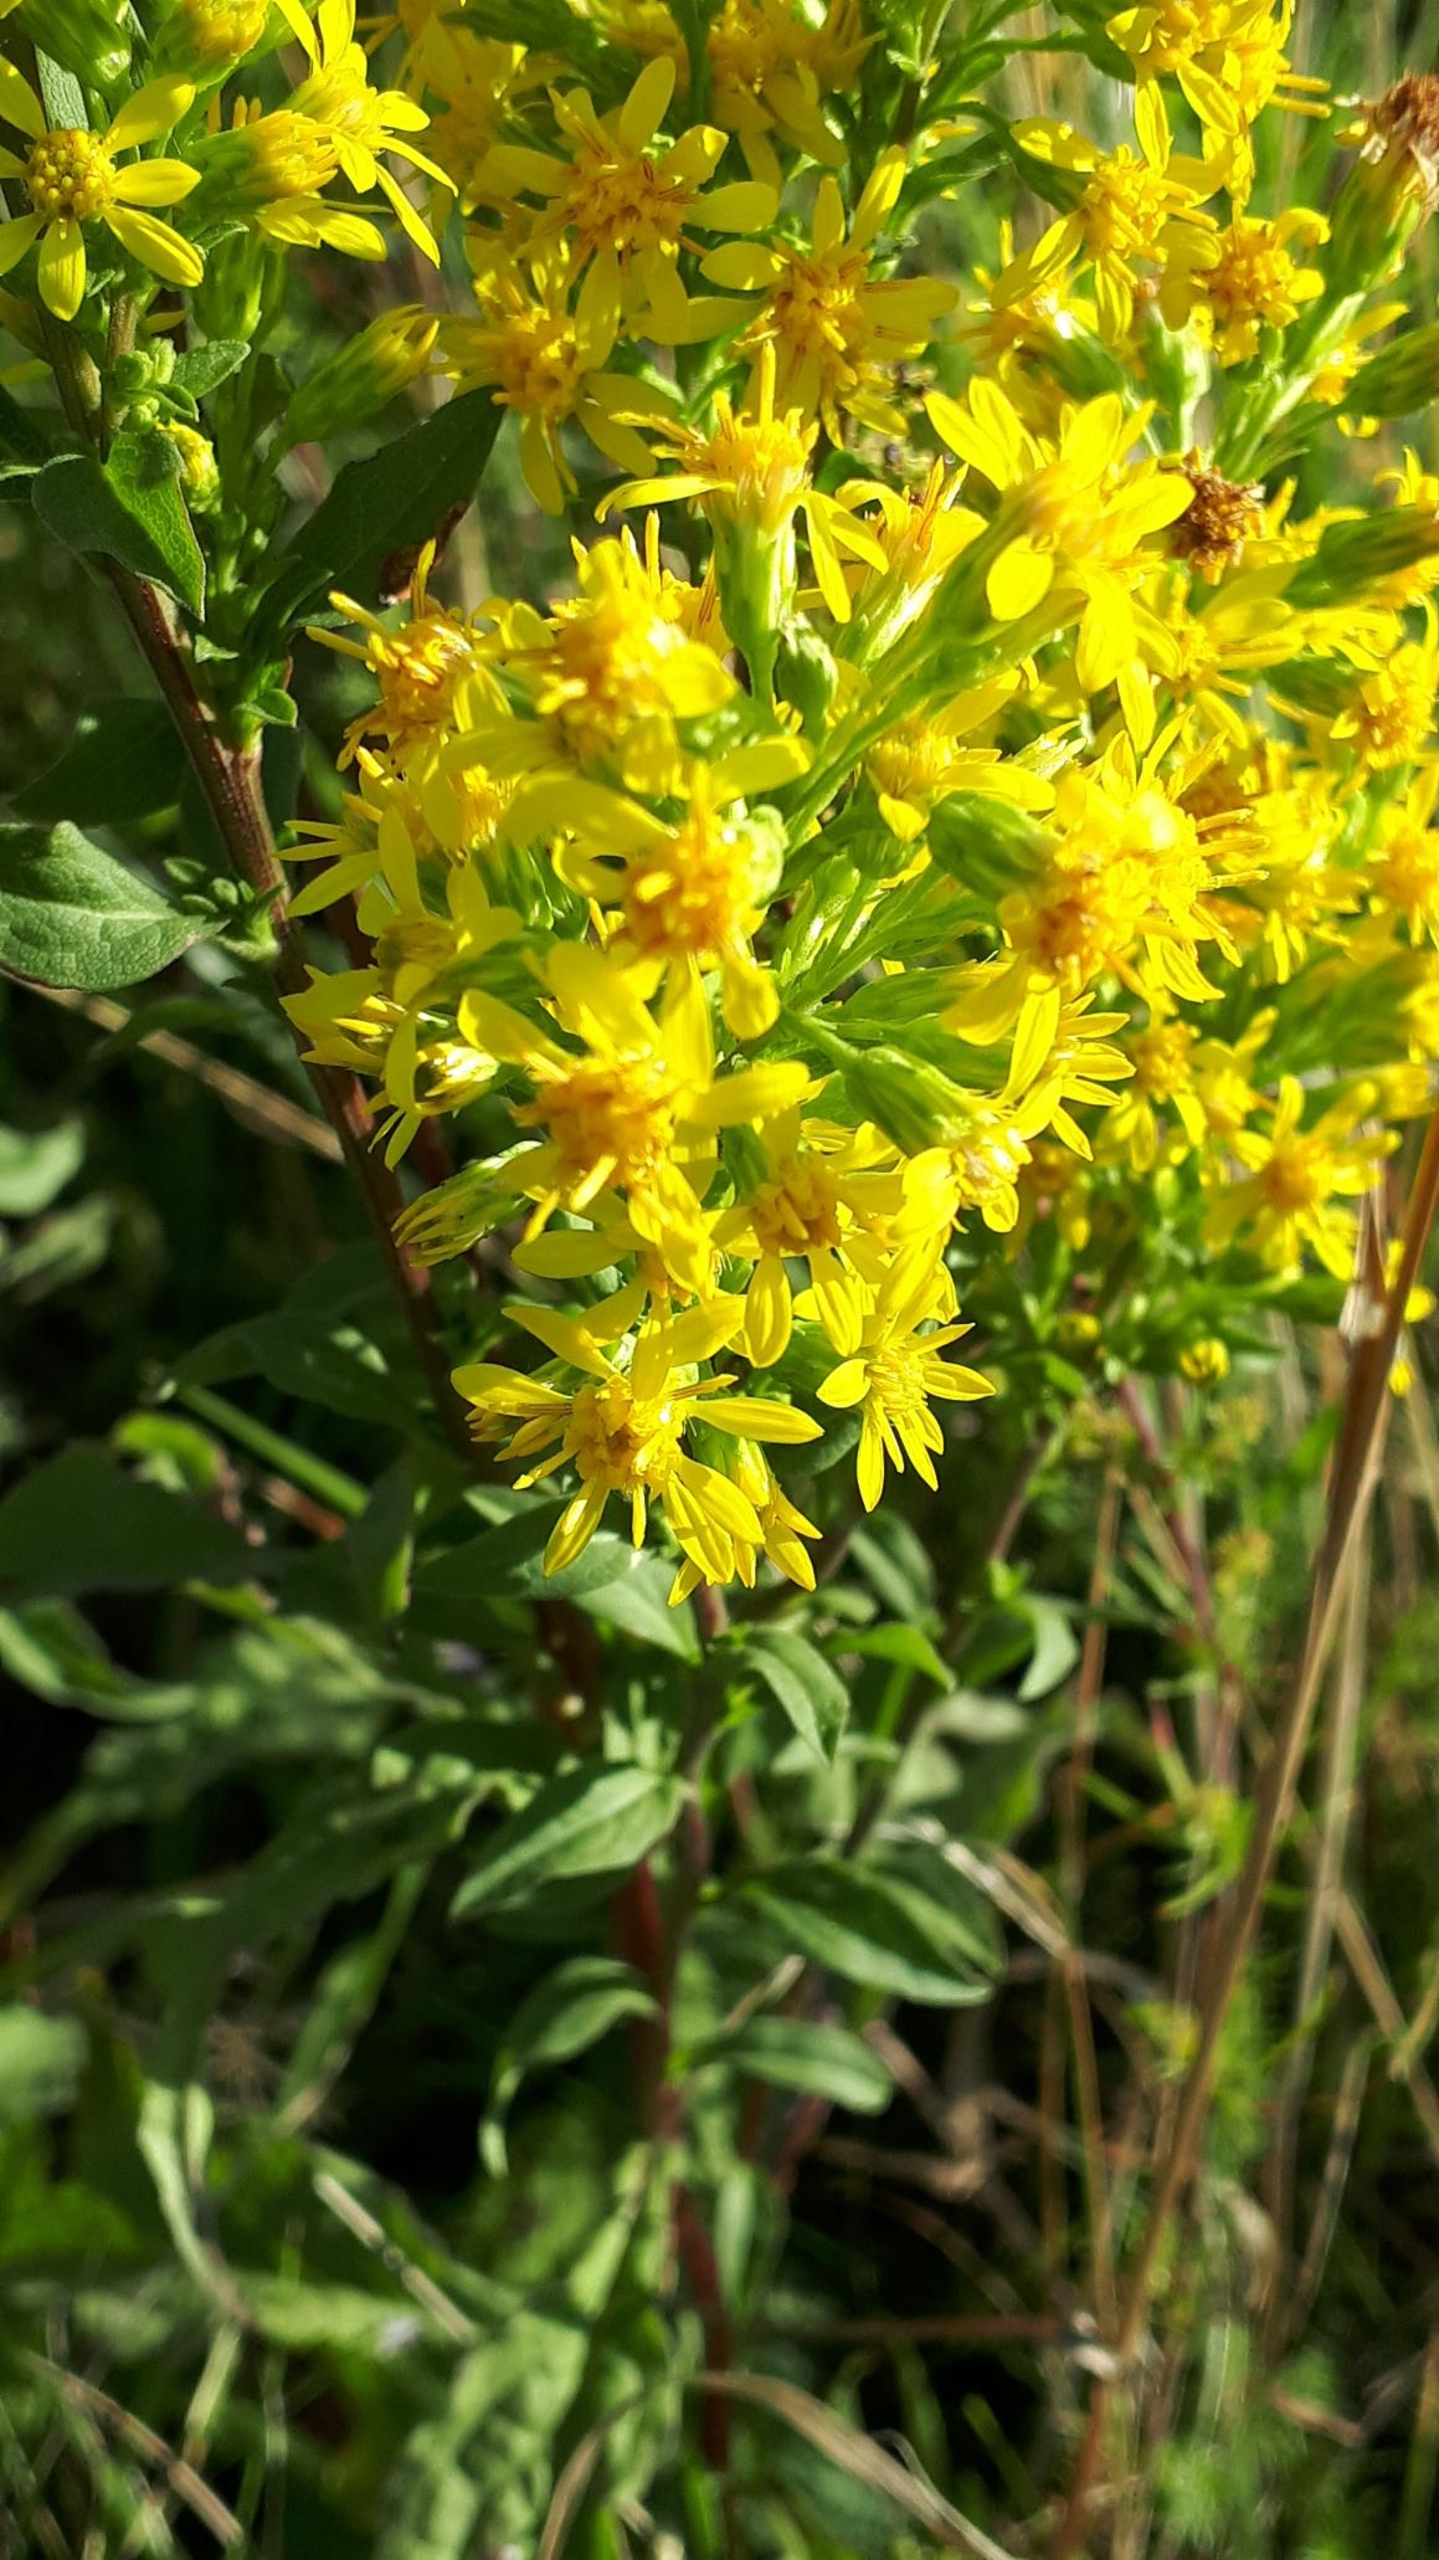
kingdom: Plantae
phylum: Tracheophyta
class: Magnoliopsida
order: Asterales
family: Asteraceae
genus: Solidago
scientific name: Solidago virgaurea
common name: Almindelig gyldenris
